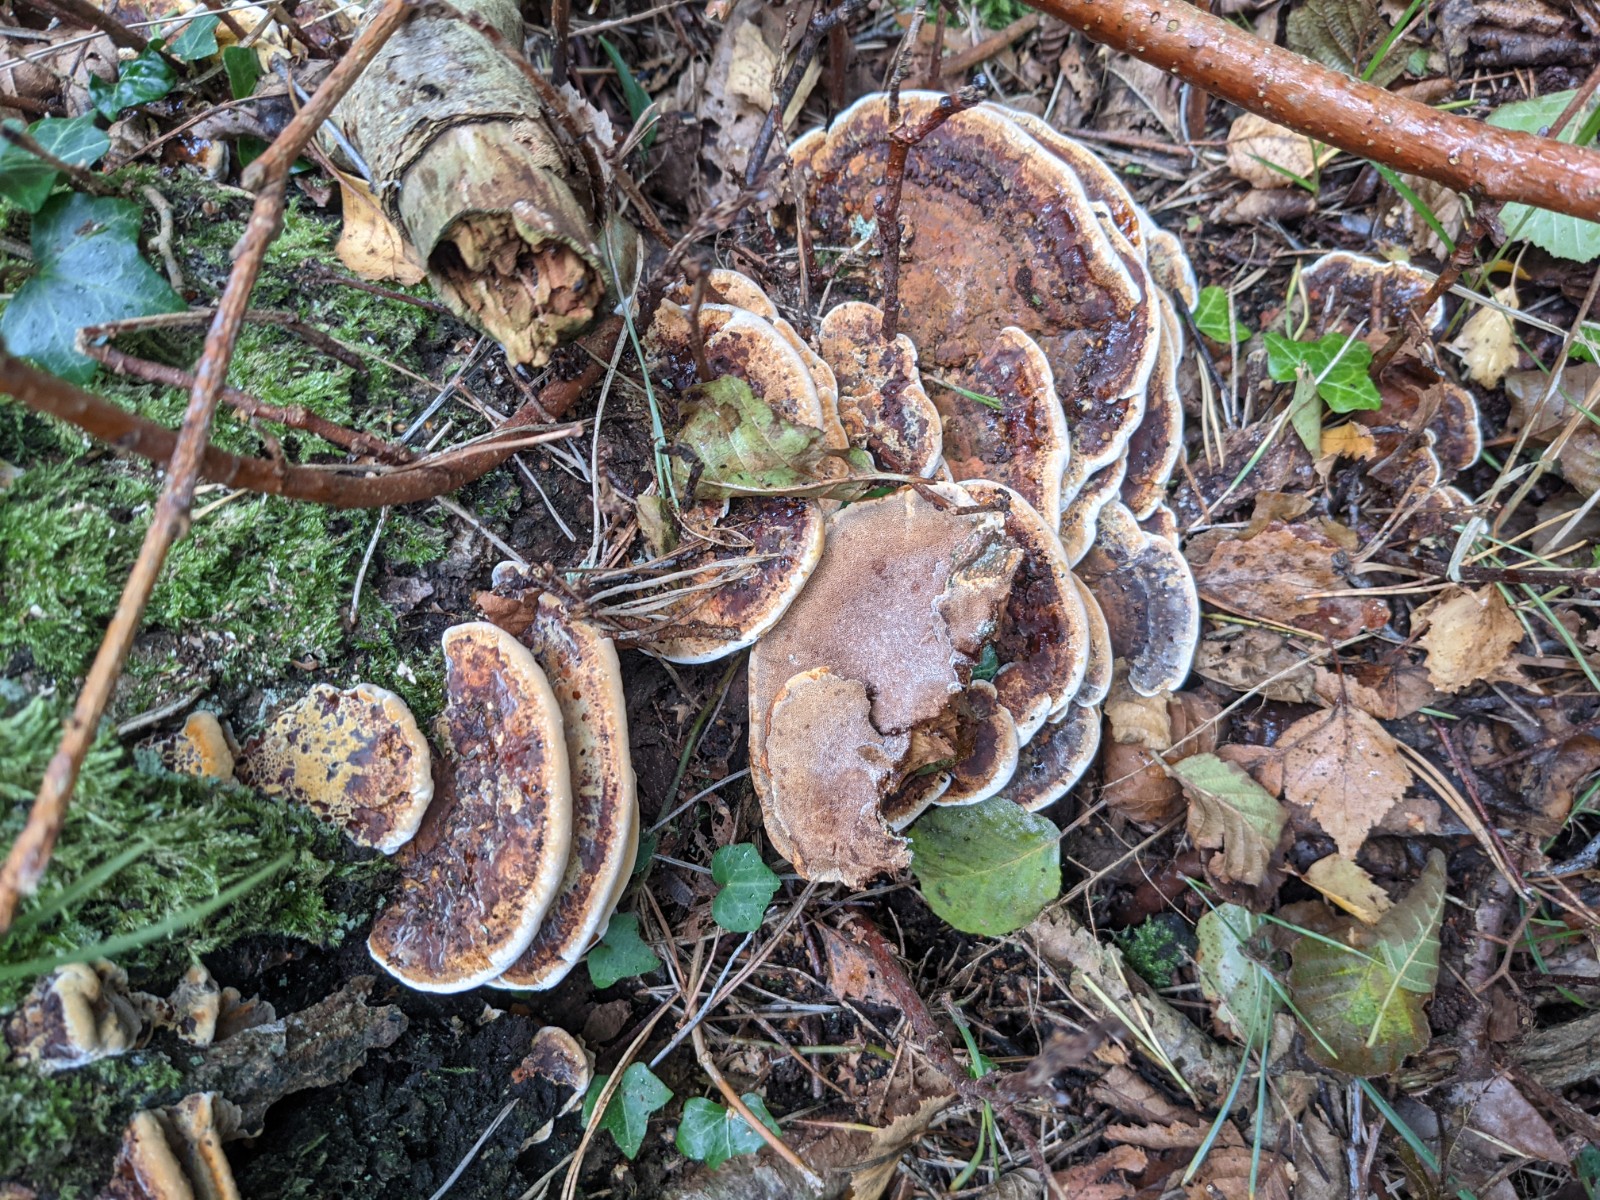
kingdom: Fungi
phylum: Basidiomycota
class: Agaricomycetes
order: Hymenochaetales
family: Hymenochaetaceae
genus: Xanthoporia
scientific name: Xanthoporia radiata
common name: elle-spejlporesvamp
